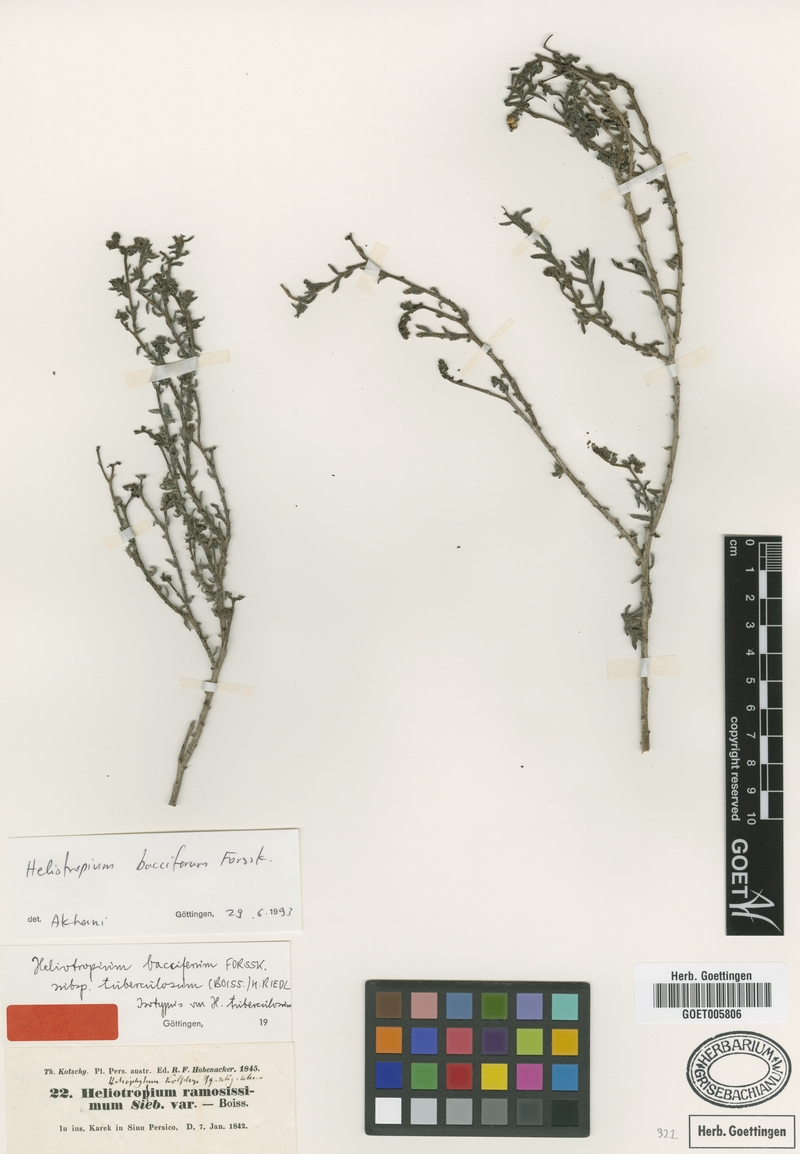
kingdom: Plantae
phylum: Tracheophyta
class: Magnoliopsida
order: Boraginales
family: Heliotropiaceae
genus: Heliotropium
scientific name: Heliotropium bacciferum
